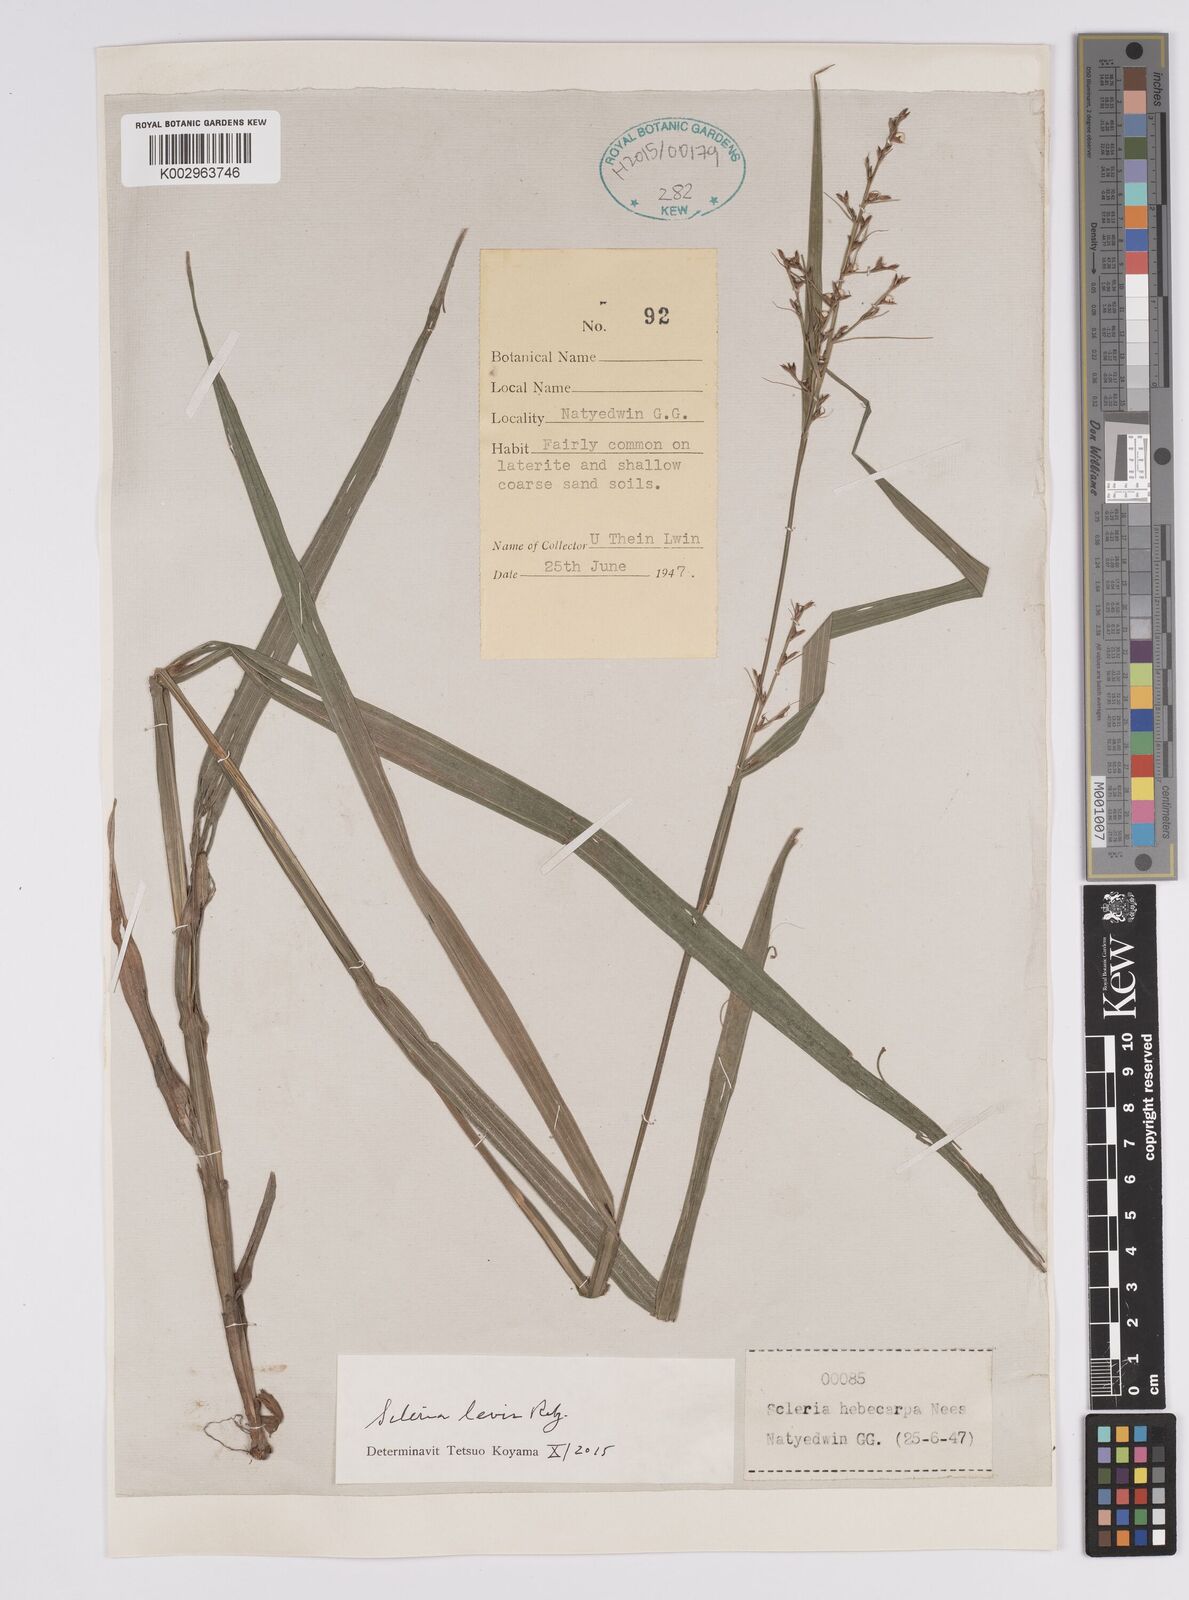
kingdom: Plantae
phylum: Tracheophyta
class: Liliopsida
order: Poales
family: Cyperaceae
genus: Scleria
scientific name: Scleria levis
